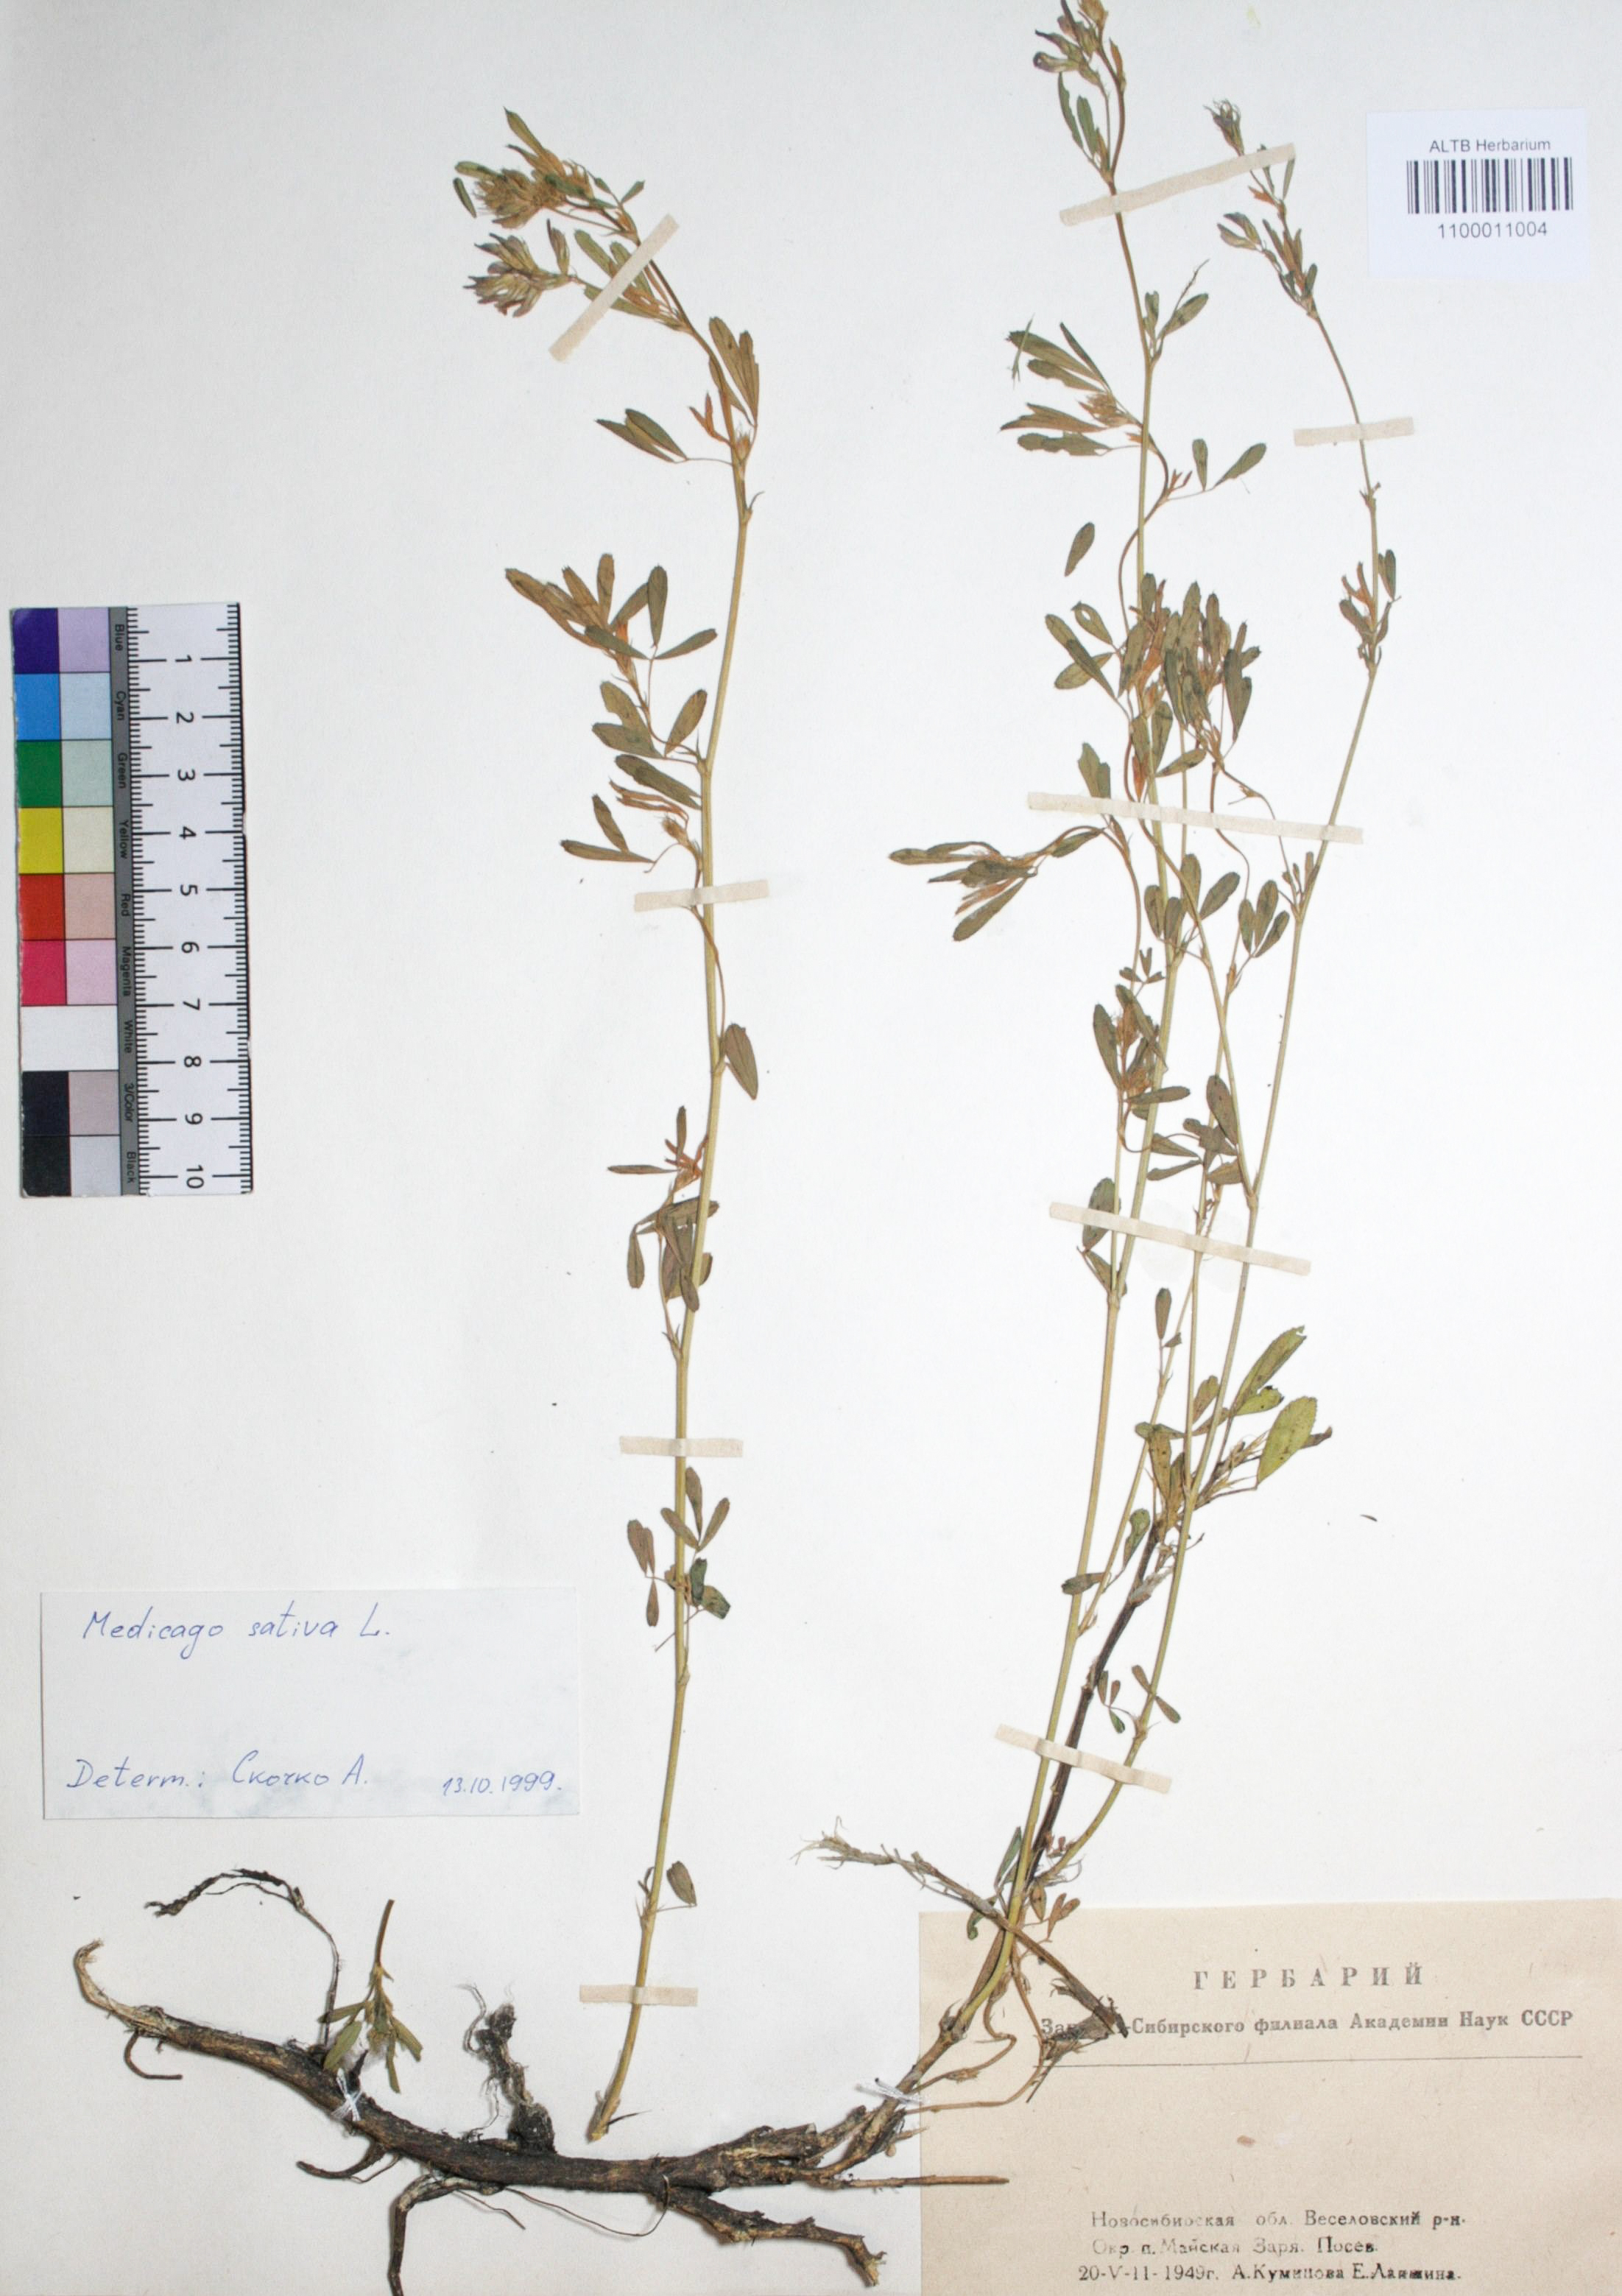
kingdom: Plantae
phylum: Tracheophyta
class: Magnoliopsida
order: Fabales
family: Fabaceae
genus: Medicago
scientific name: Medicago sativa
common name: Alfalfa
